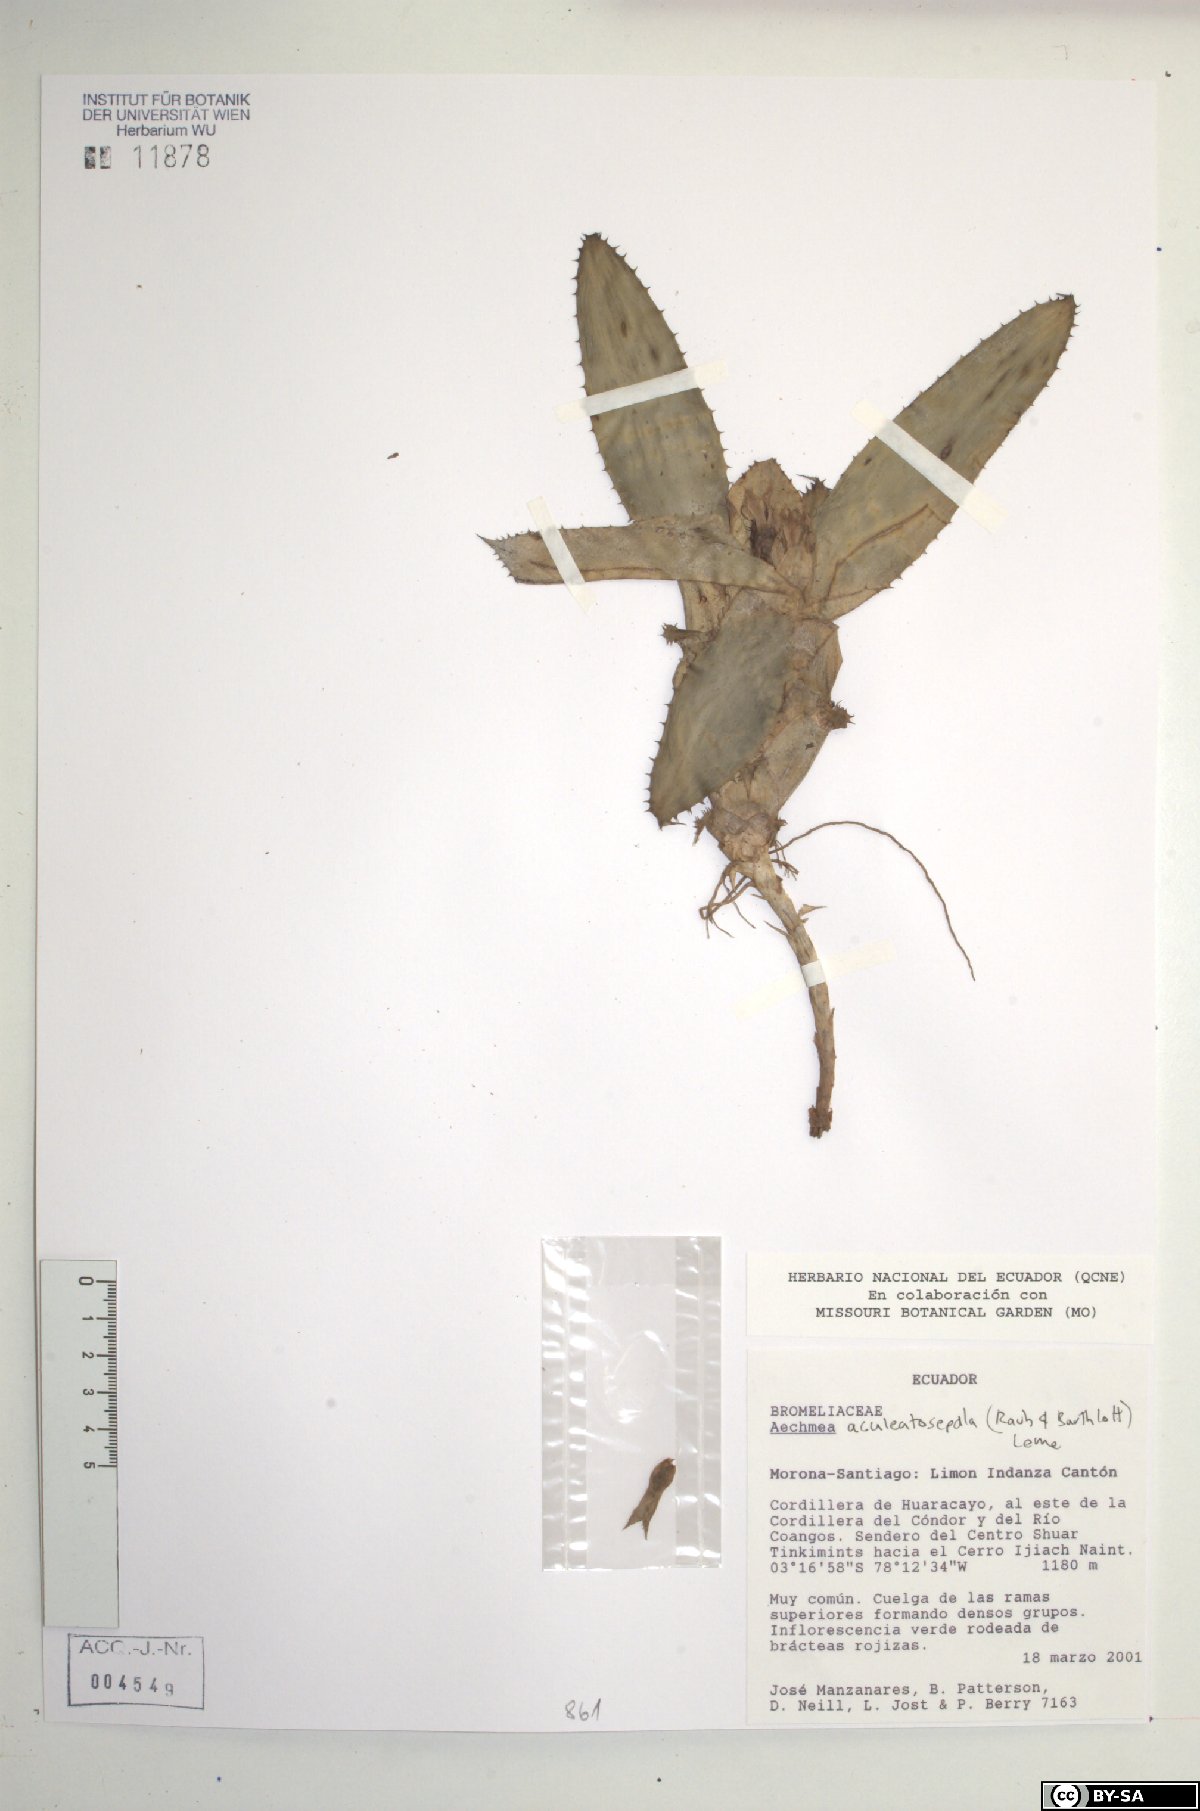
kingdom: Plantae
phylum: Tracheophyta
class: Liliopsida
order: Poales
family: Bromeliaceae
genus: Aechmea
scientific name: Aechmea aculeatosepala
